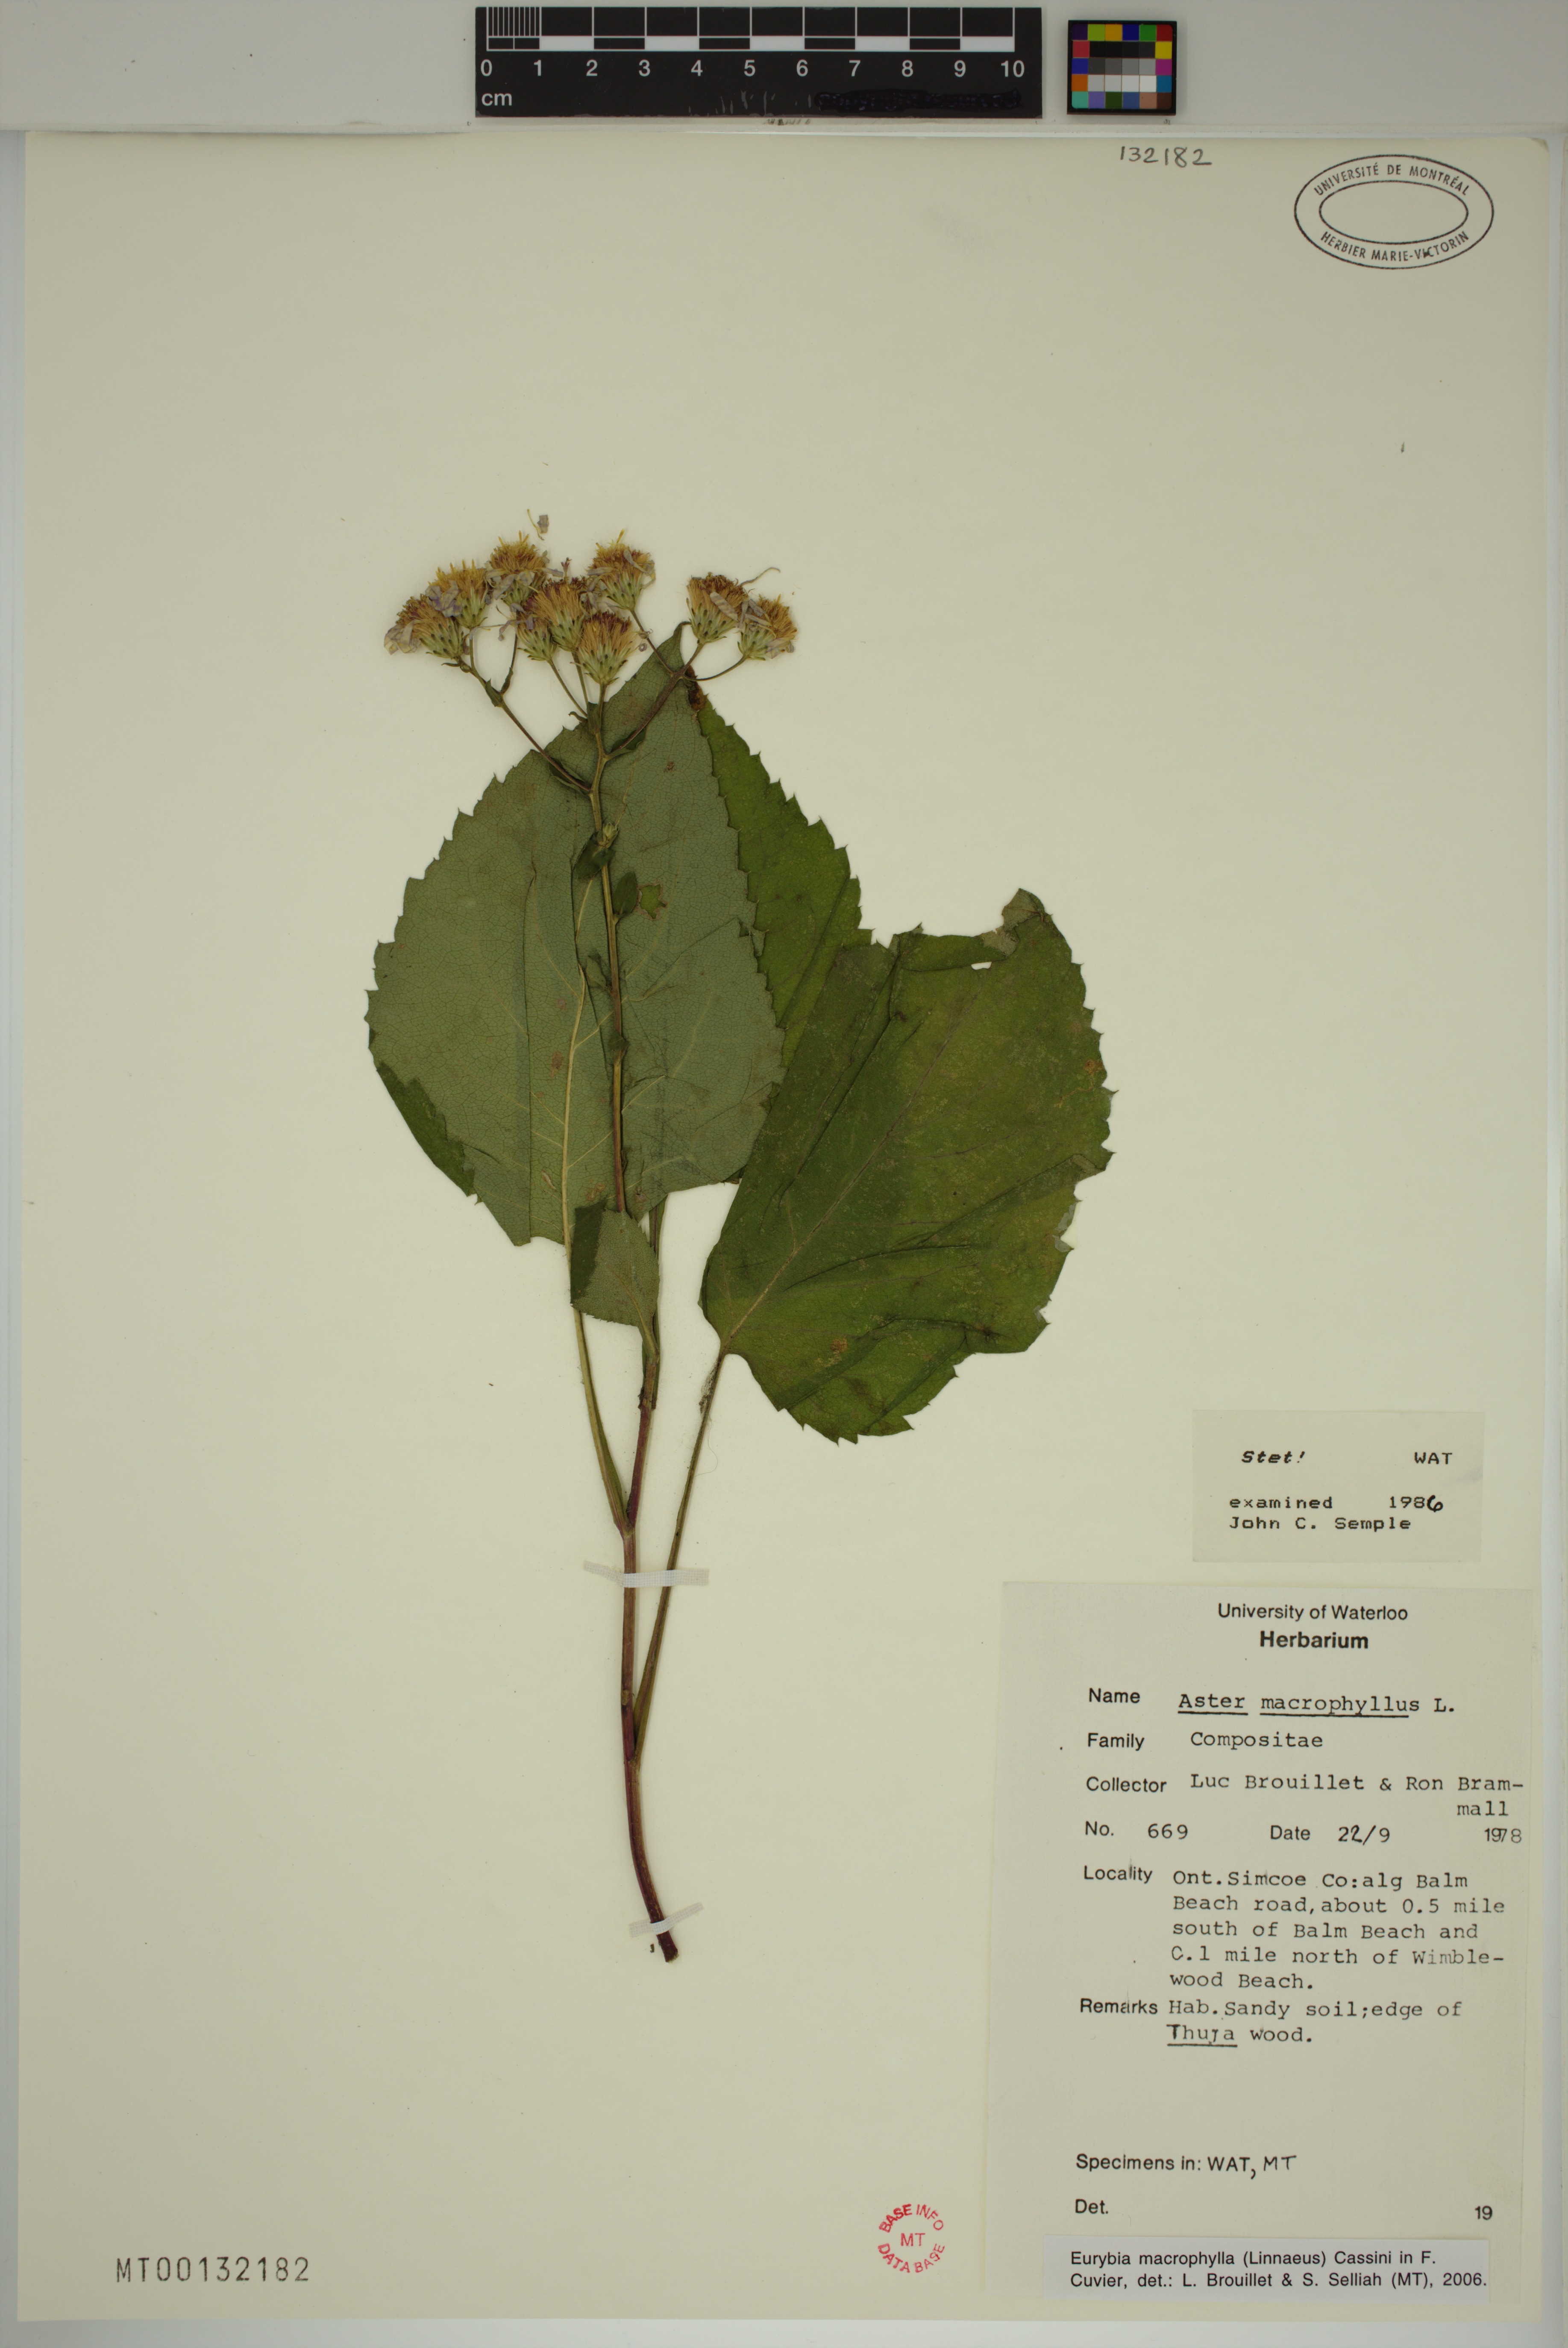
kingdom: Plantae
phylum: Tracheophyta
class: Magnoliopsida
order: Asterales
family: Asteraceae
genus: Eurybia
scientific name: Eurybia macrophylla
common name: Big-leaved aster
